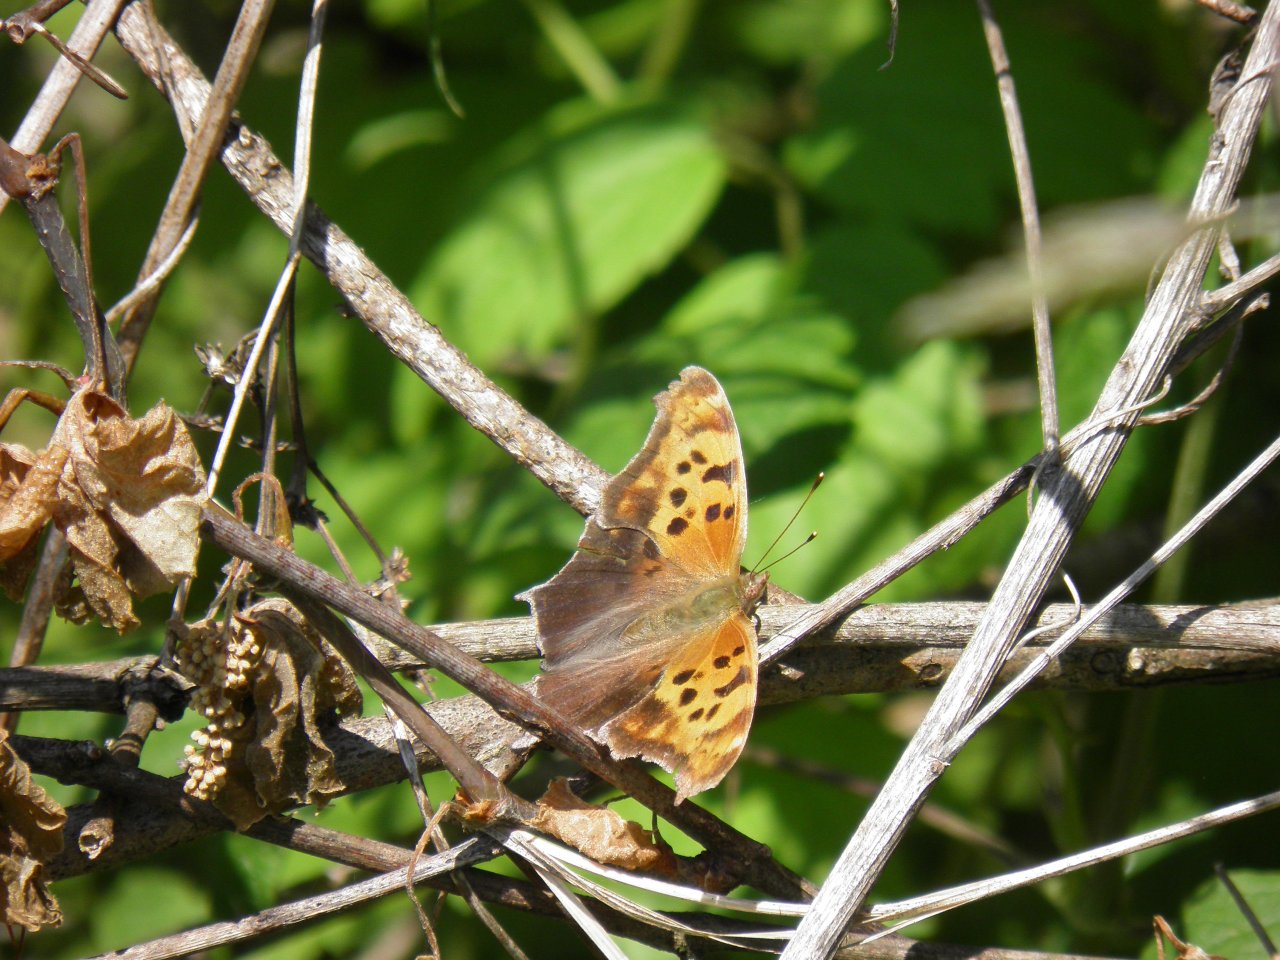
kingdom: Animalia
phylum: Arthropoda
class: Insecta
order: Lepidoptera
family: Nymphalidae
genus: Polygonia
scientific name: Polygonia interrogationis
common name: Question Mark
